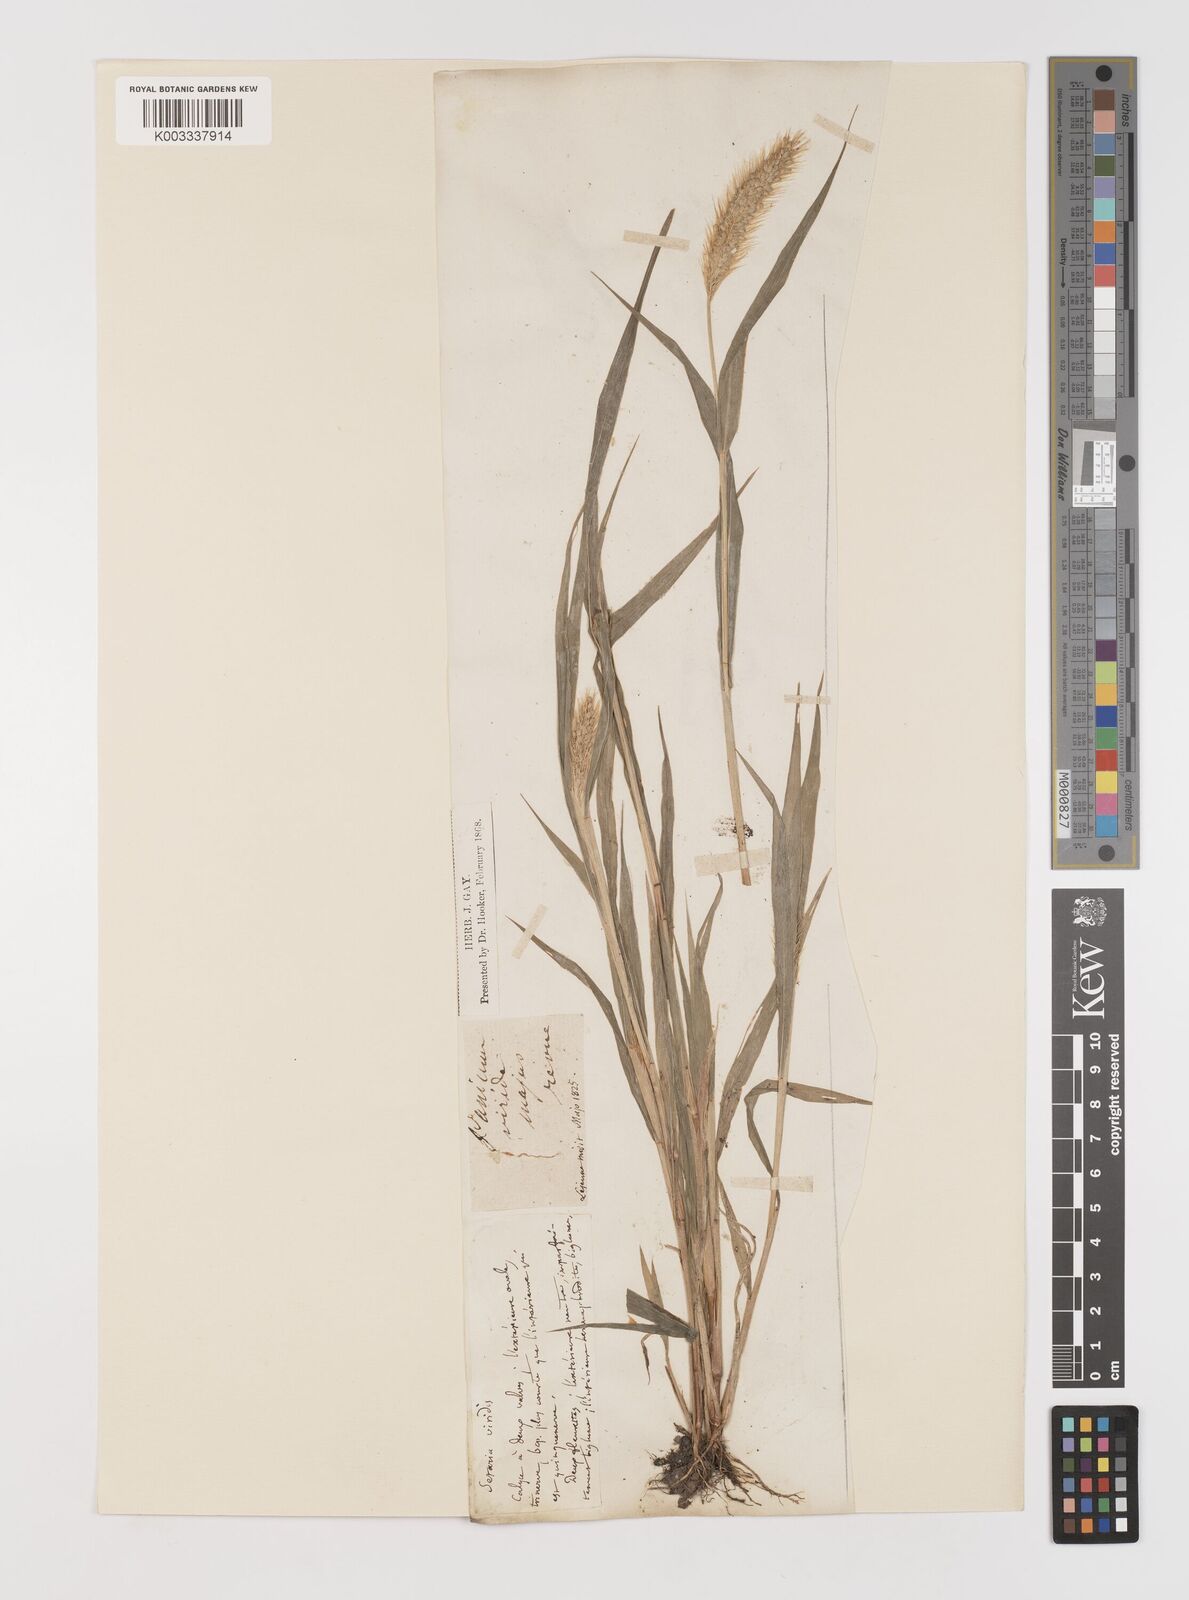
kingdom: Plantae
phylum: Tracheophyta
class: Liliopsida
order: Poales
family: Poaceae
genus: Setaria
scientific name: Setaria viridis
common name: Green bristlegrass
